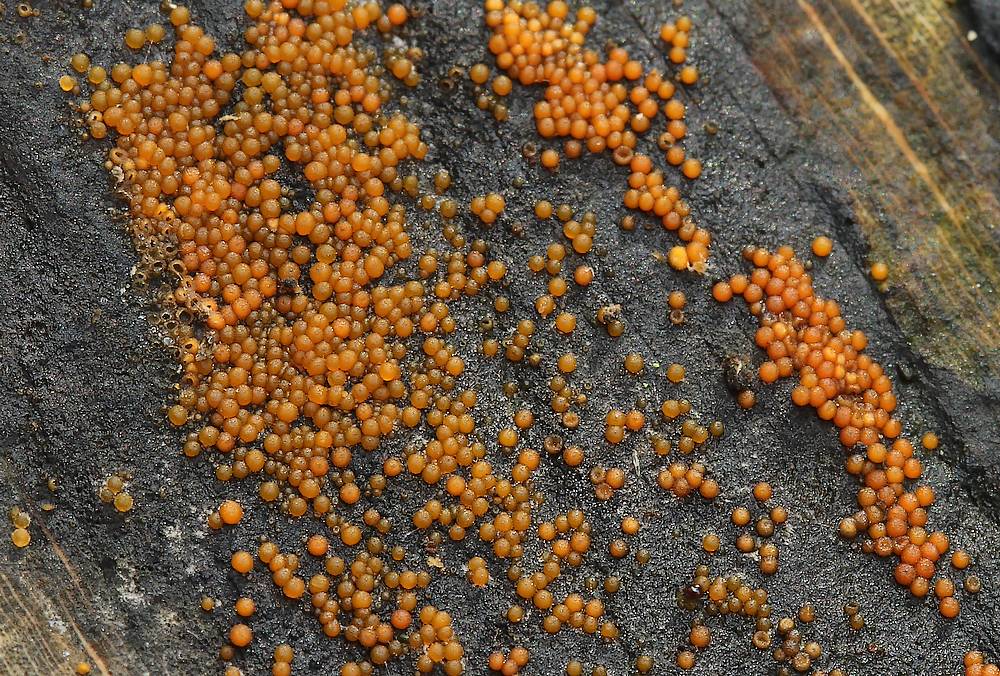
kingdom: Fungi
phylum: Ascomycota
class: Sordariomycetes
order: Hypocreales
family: Nectriaceae
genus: Hydropisphaera
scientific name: Hydropisphaera peziza
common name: skålformet gyldenkerne
